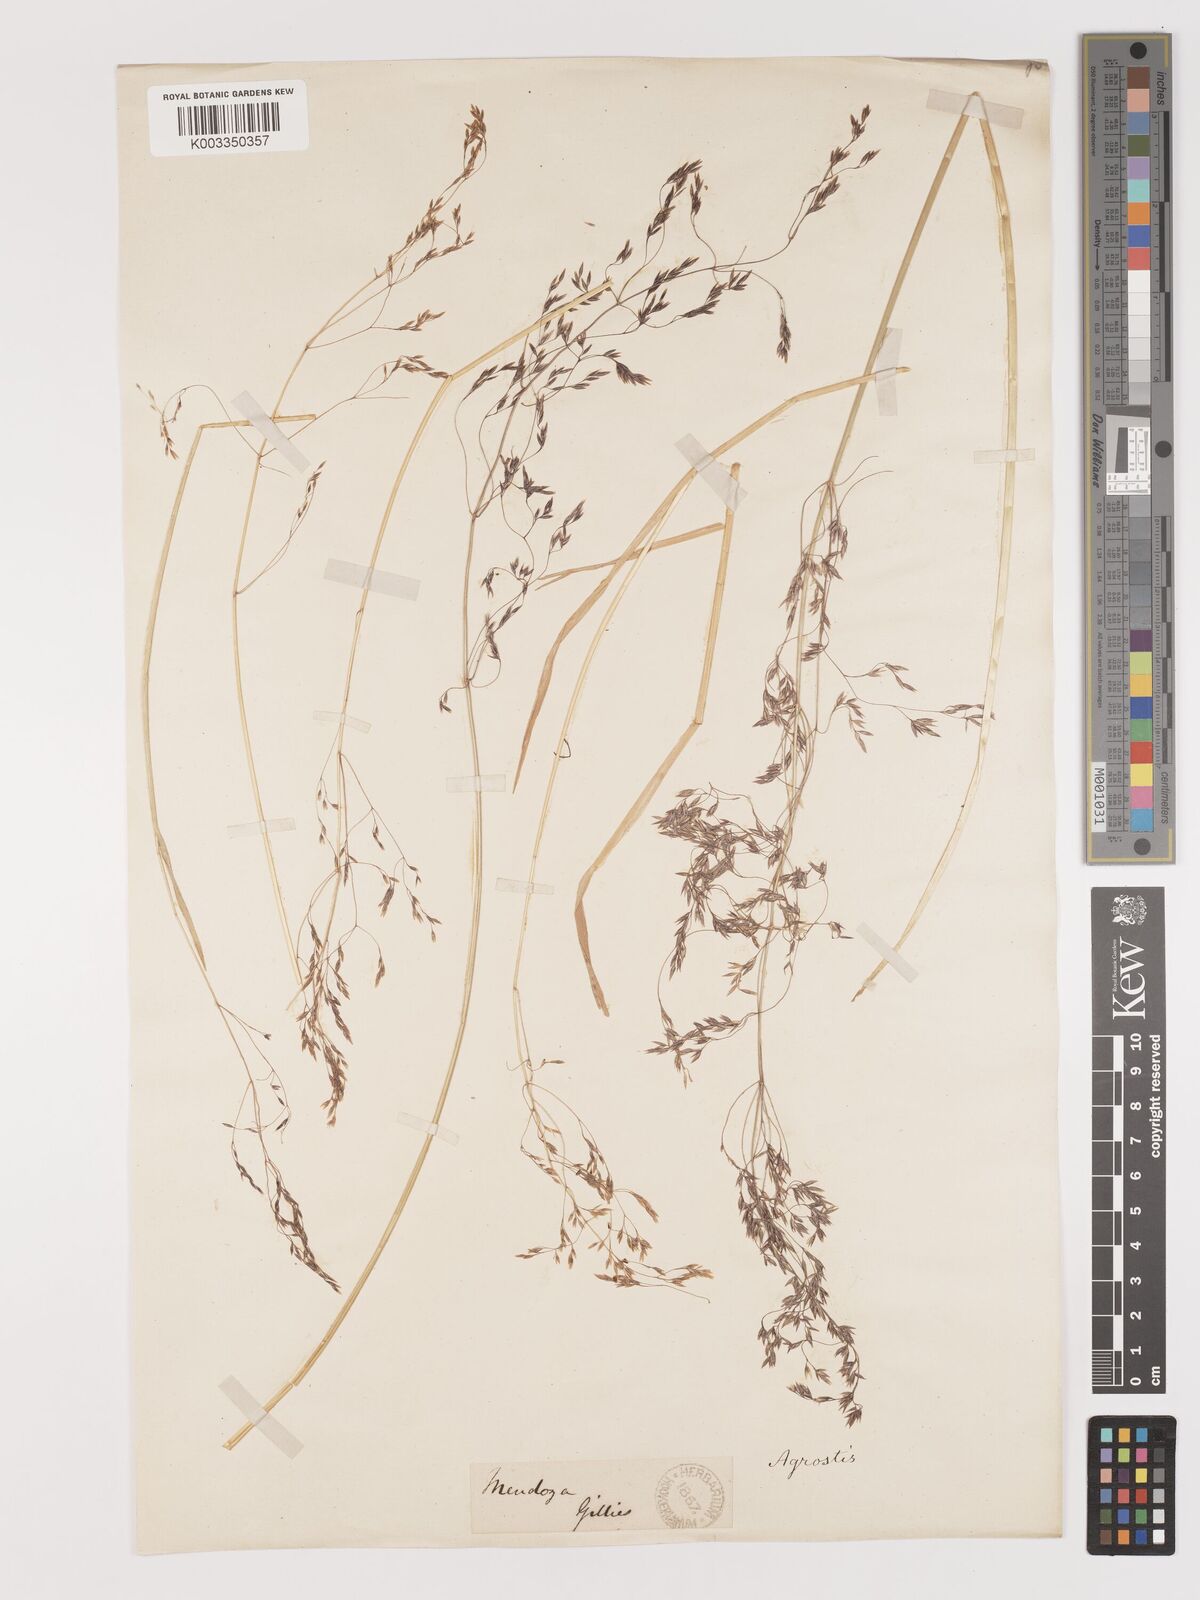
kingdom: Plantae
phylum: Tracheophyta
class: Liliopsida
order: Poales
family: Poaceae
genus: Agrostis
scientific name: Agrostis
